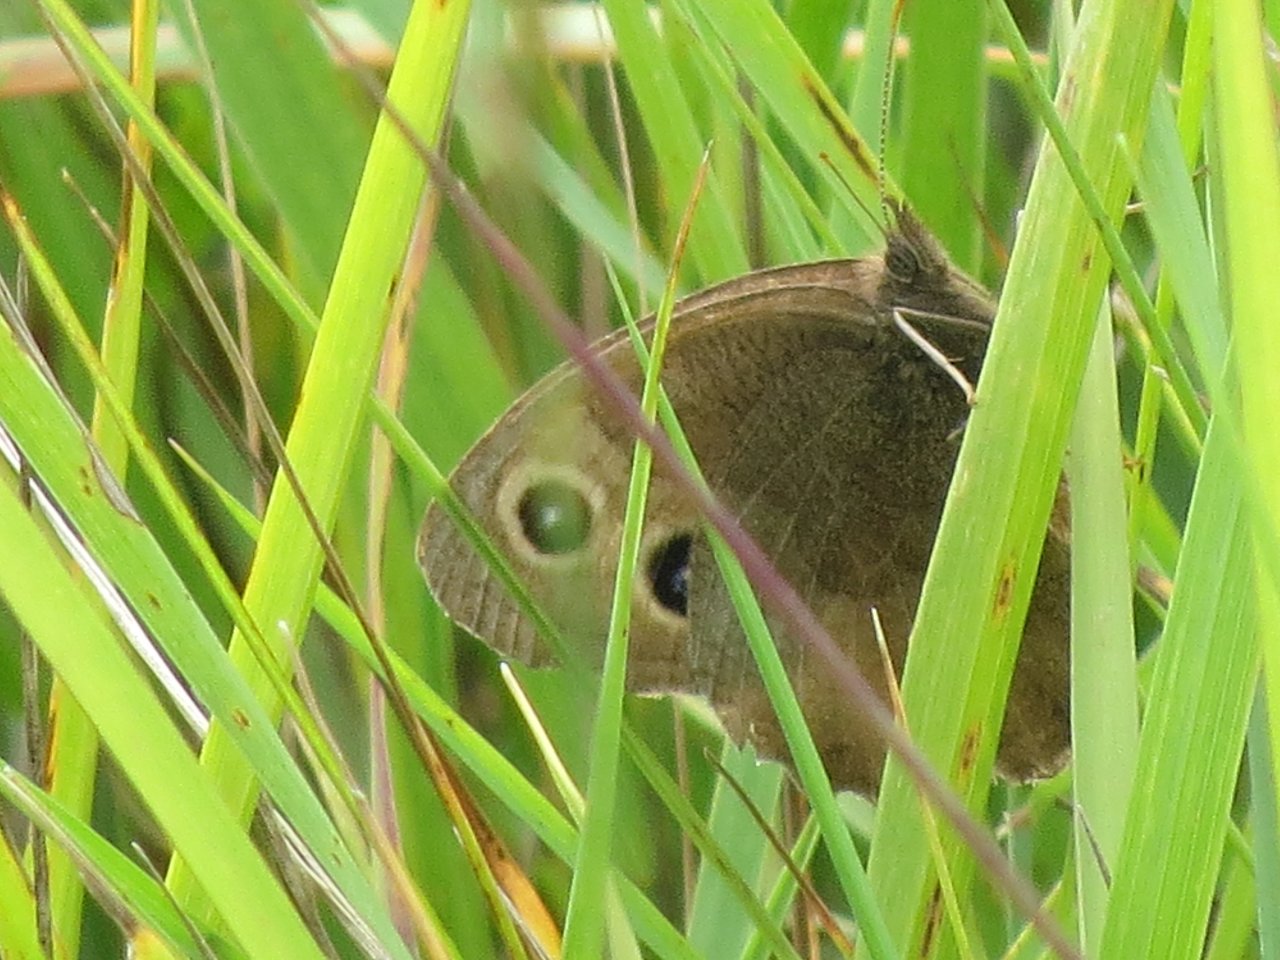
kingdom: Animalia
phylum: Arthropoda
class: Insecta
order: Lepidoptera
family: Nymphalidae
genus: Cercyonis
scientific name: Cercyonis pegala
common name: Common Wood-Nymph
